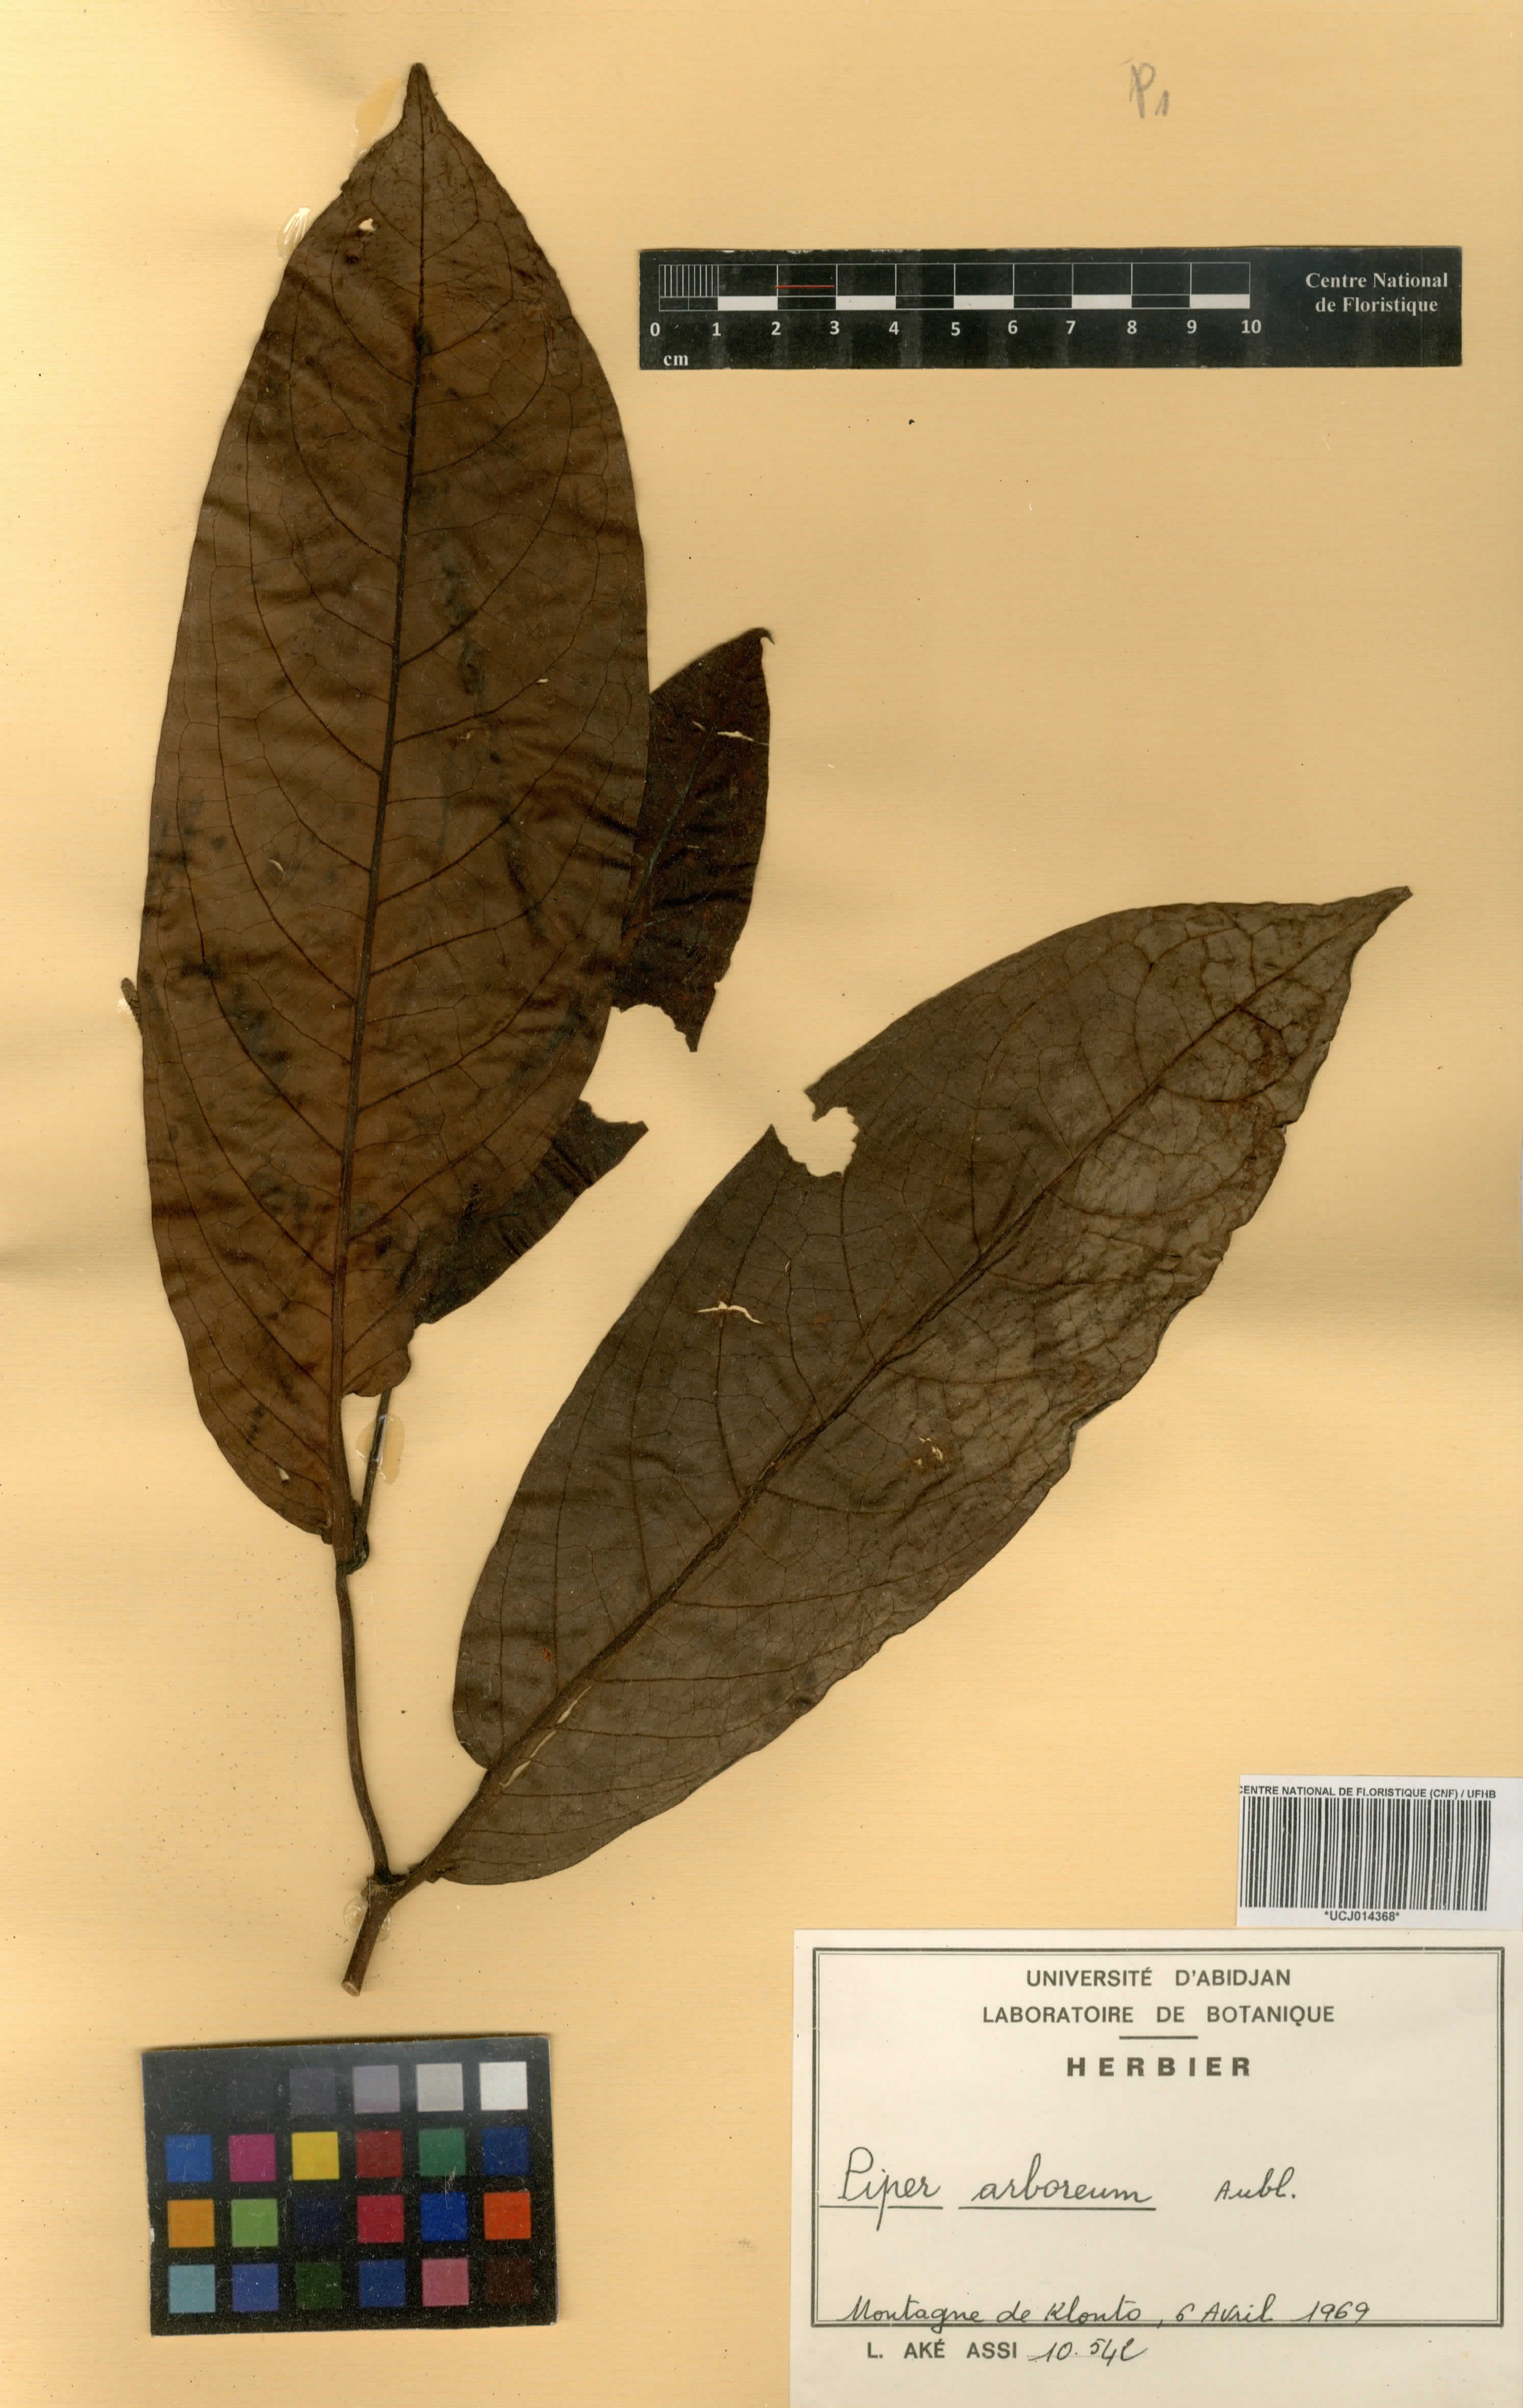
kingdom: Plantae
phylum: Tracheophyta
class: Magnoliopsida
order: Piperales
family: Piperaceae
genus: Piper
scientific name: Piper arboreum
